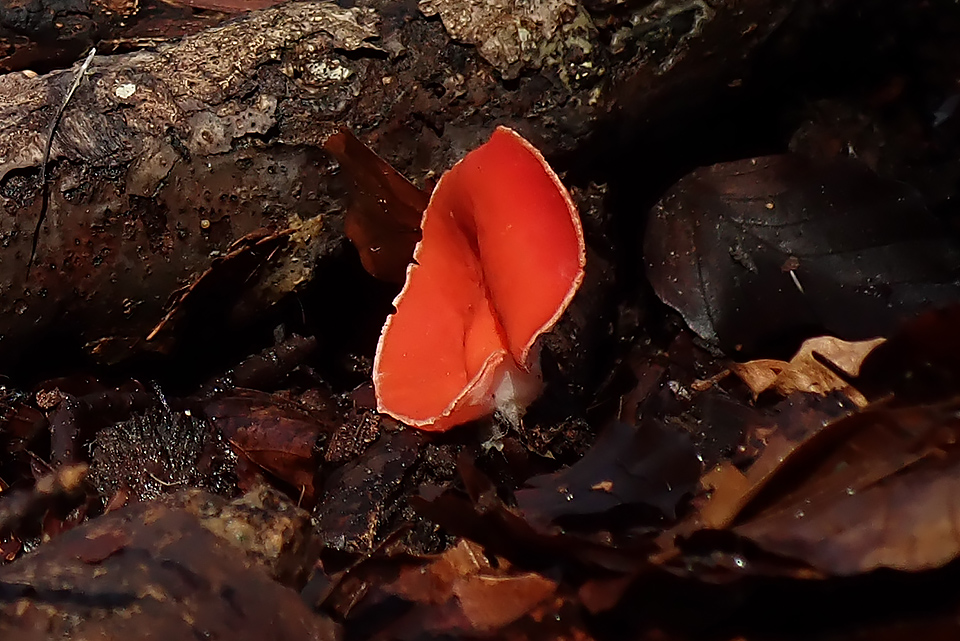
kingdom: Fungi
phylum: Ascomycota
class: Pezizomycetes
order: Pezizales
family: Sarcoscyphaceae
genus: Sarcoscypha
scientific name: Sarcoscypha coccinea
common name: skarlagen-pragtbæger
